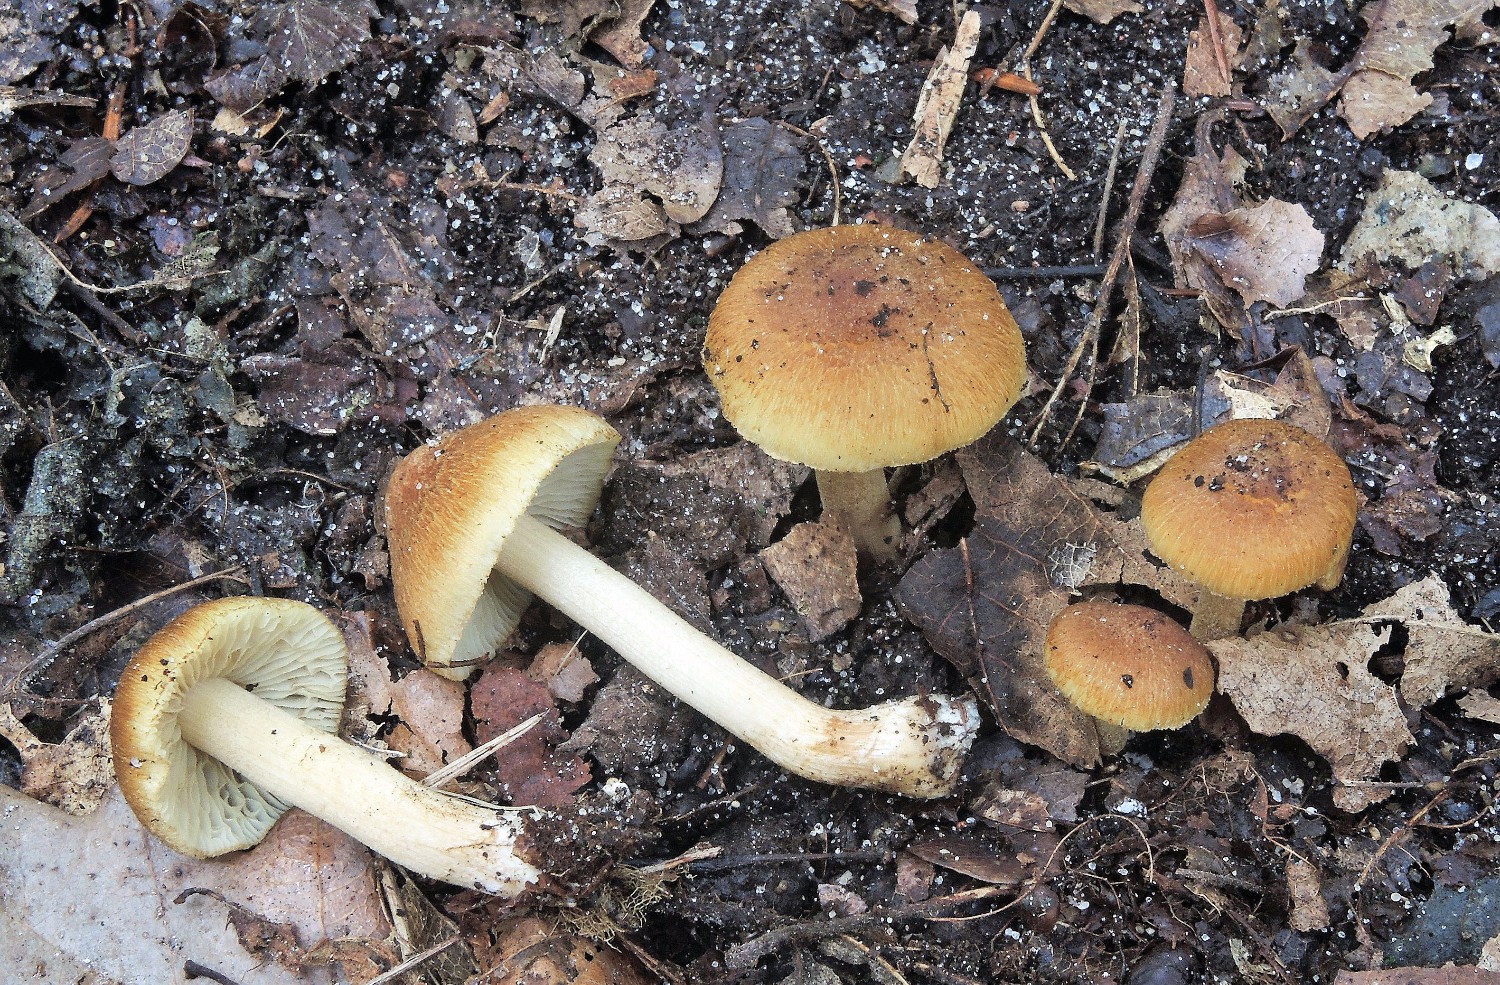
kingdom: Fungi
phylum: Basidiomycota
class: Agaricomycetes
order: Agaricales
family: Inocybaceae
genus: Inocybe
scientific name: Inocybe muricellata
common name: stribestokket trævlhat
